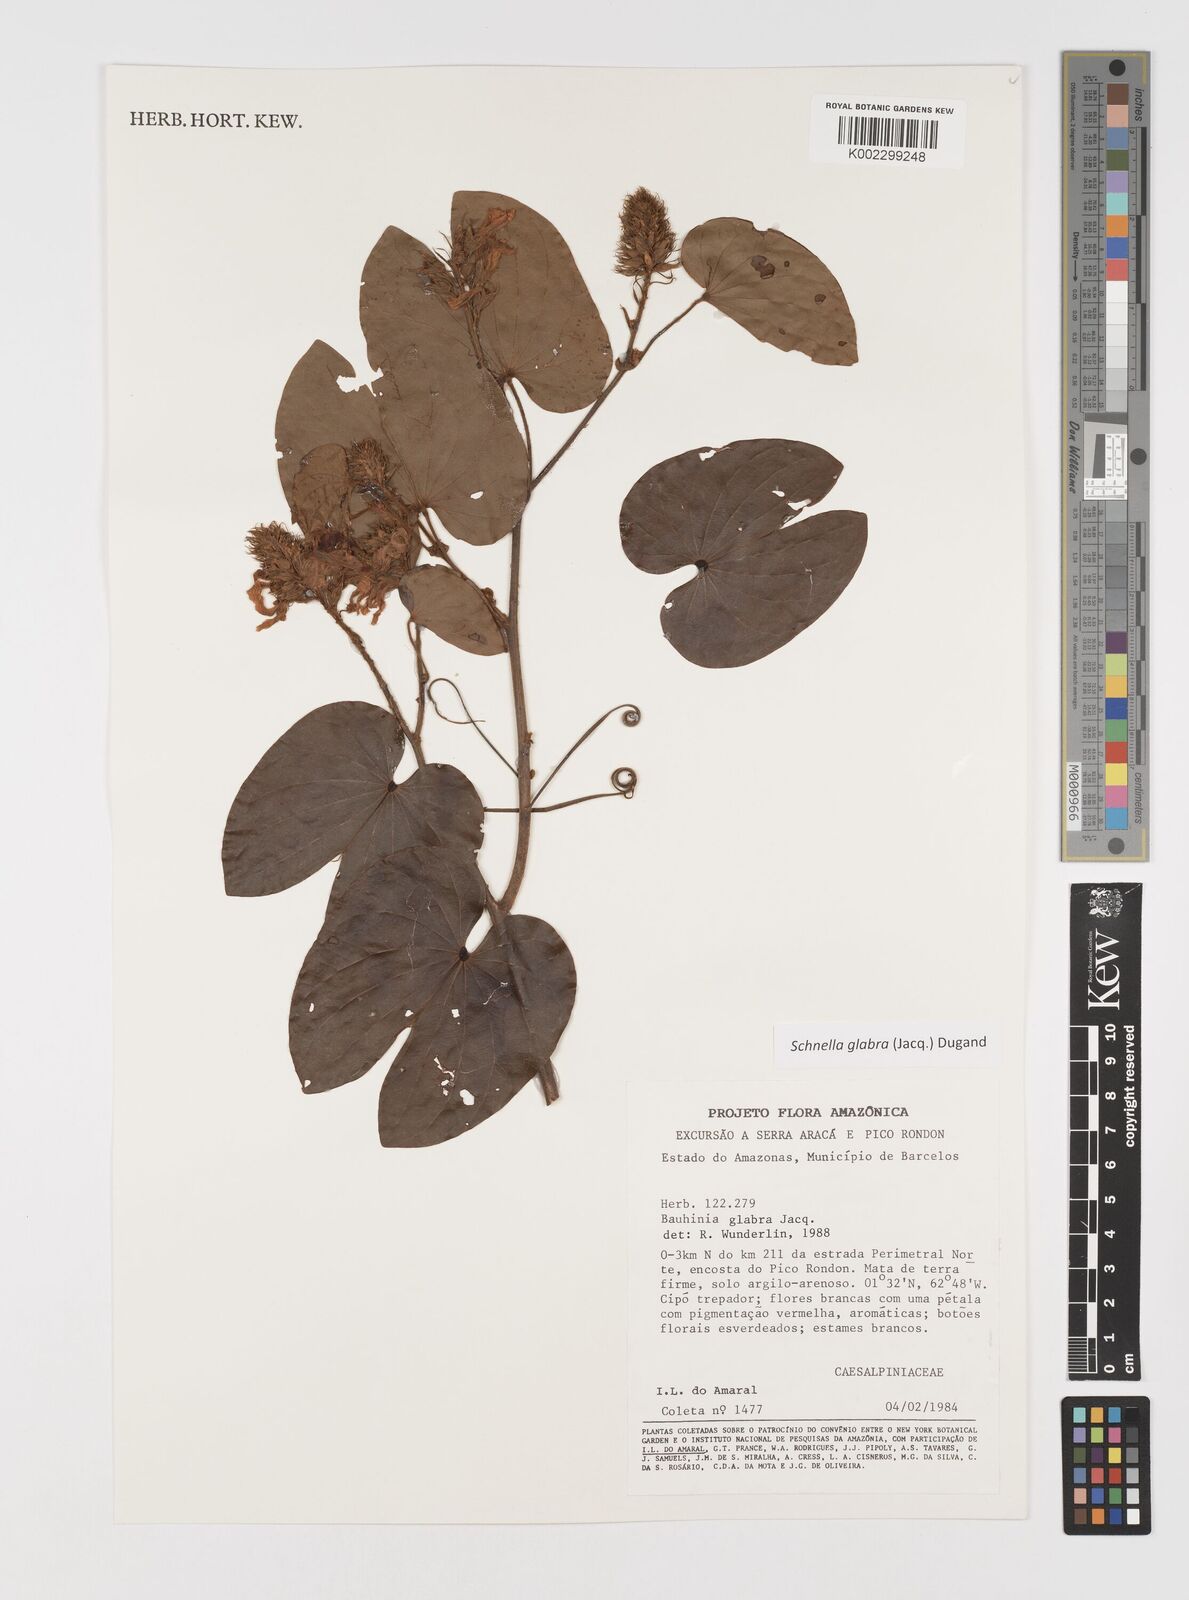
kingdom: Plantae
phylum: Tracheophyta
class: Magnoliopsida
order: Fabales
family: Fabaceae
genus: Schnella
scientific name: Schnella glabra
